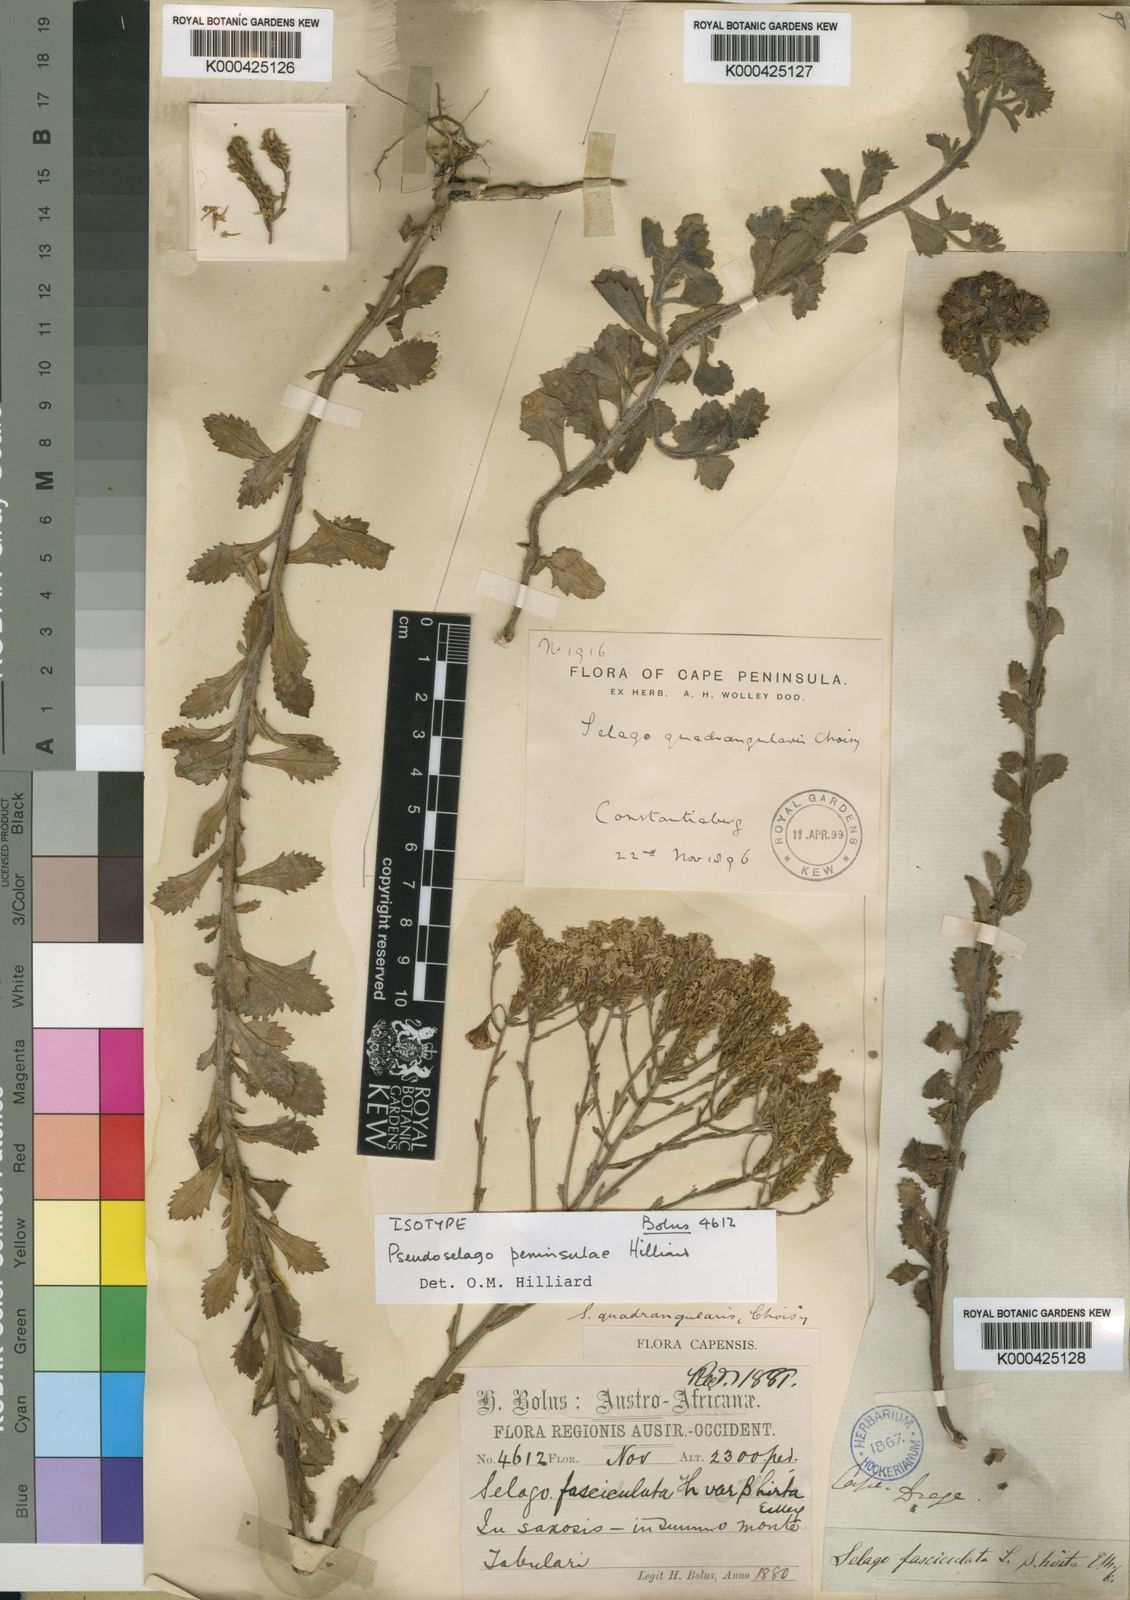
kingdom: Plantae
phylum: Tracheophyta
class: Magnoliopsida
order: Lamiales
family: Scrophulariaceae
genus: Pseudoselago
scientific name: Pseudoselago peninsulae
